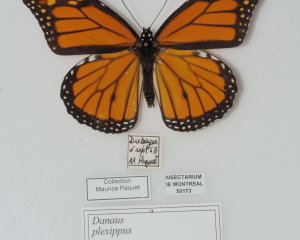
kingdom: Animalia
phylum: Arthropoda
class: Insecta
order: Lepidoptera
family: Nymphalidae
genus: Danaus
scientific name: Danaus plexippus
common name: Monarch
